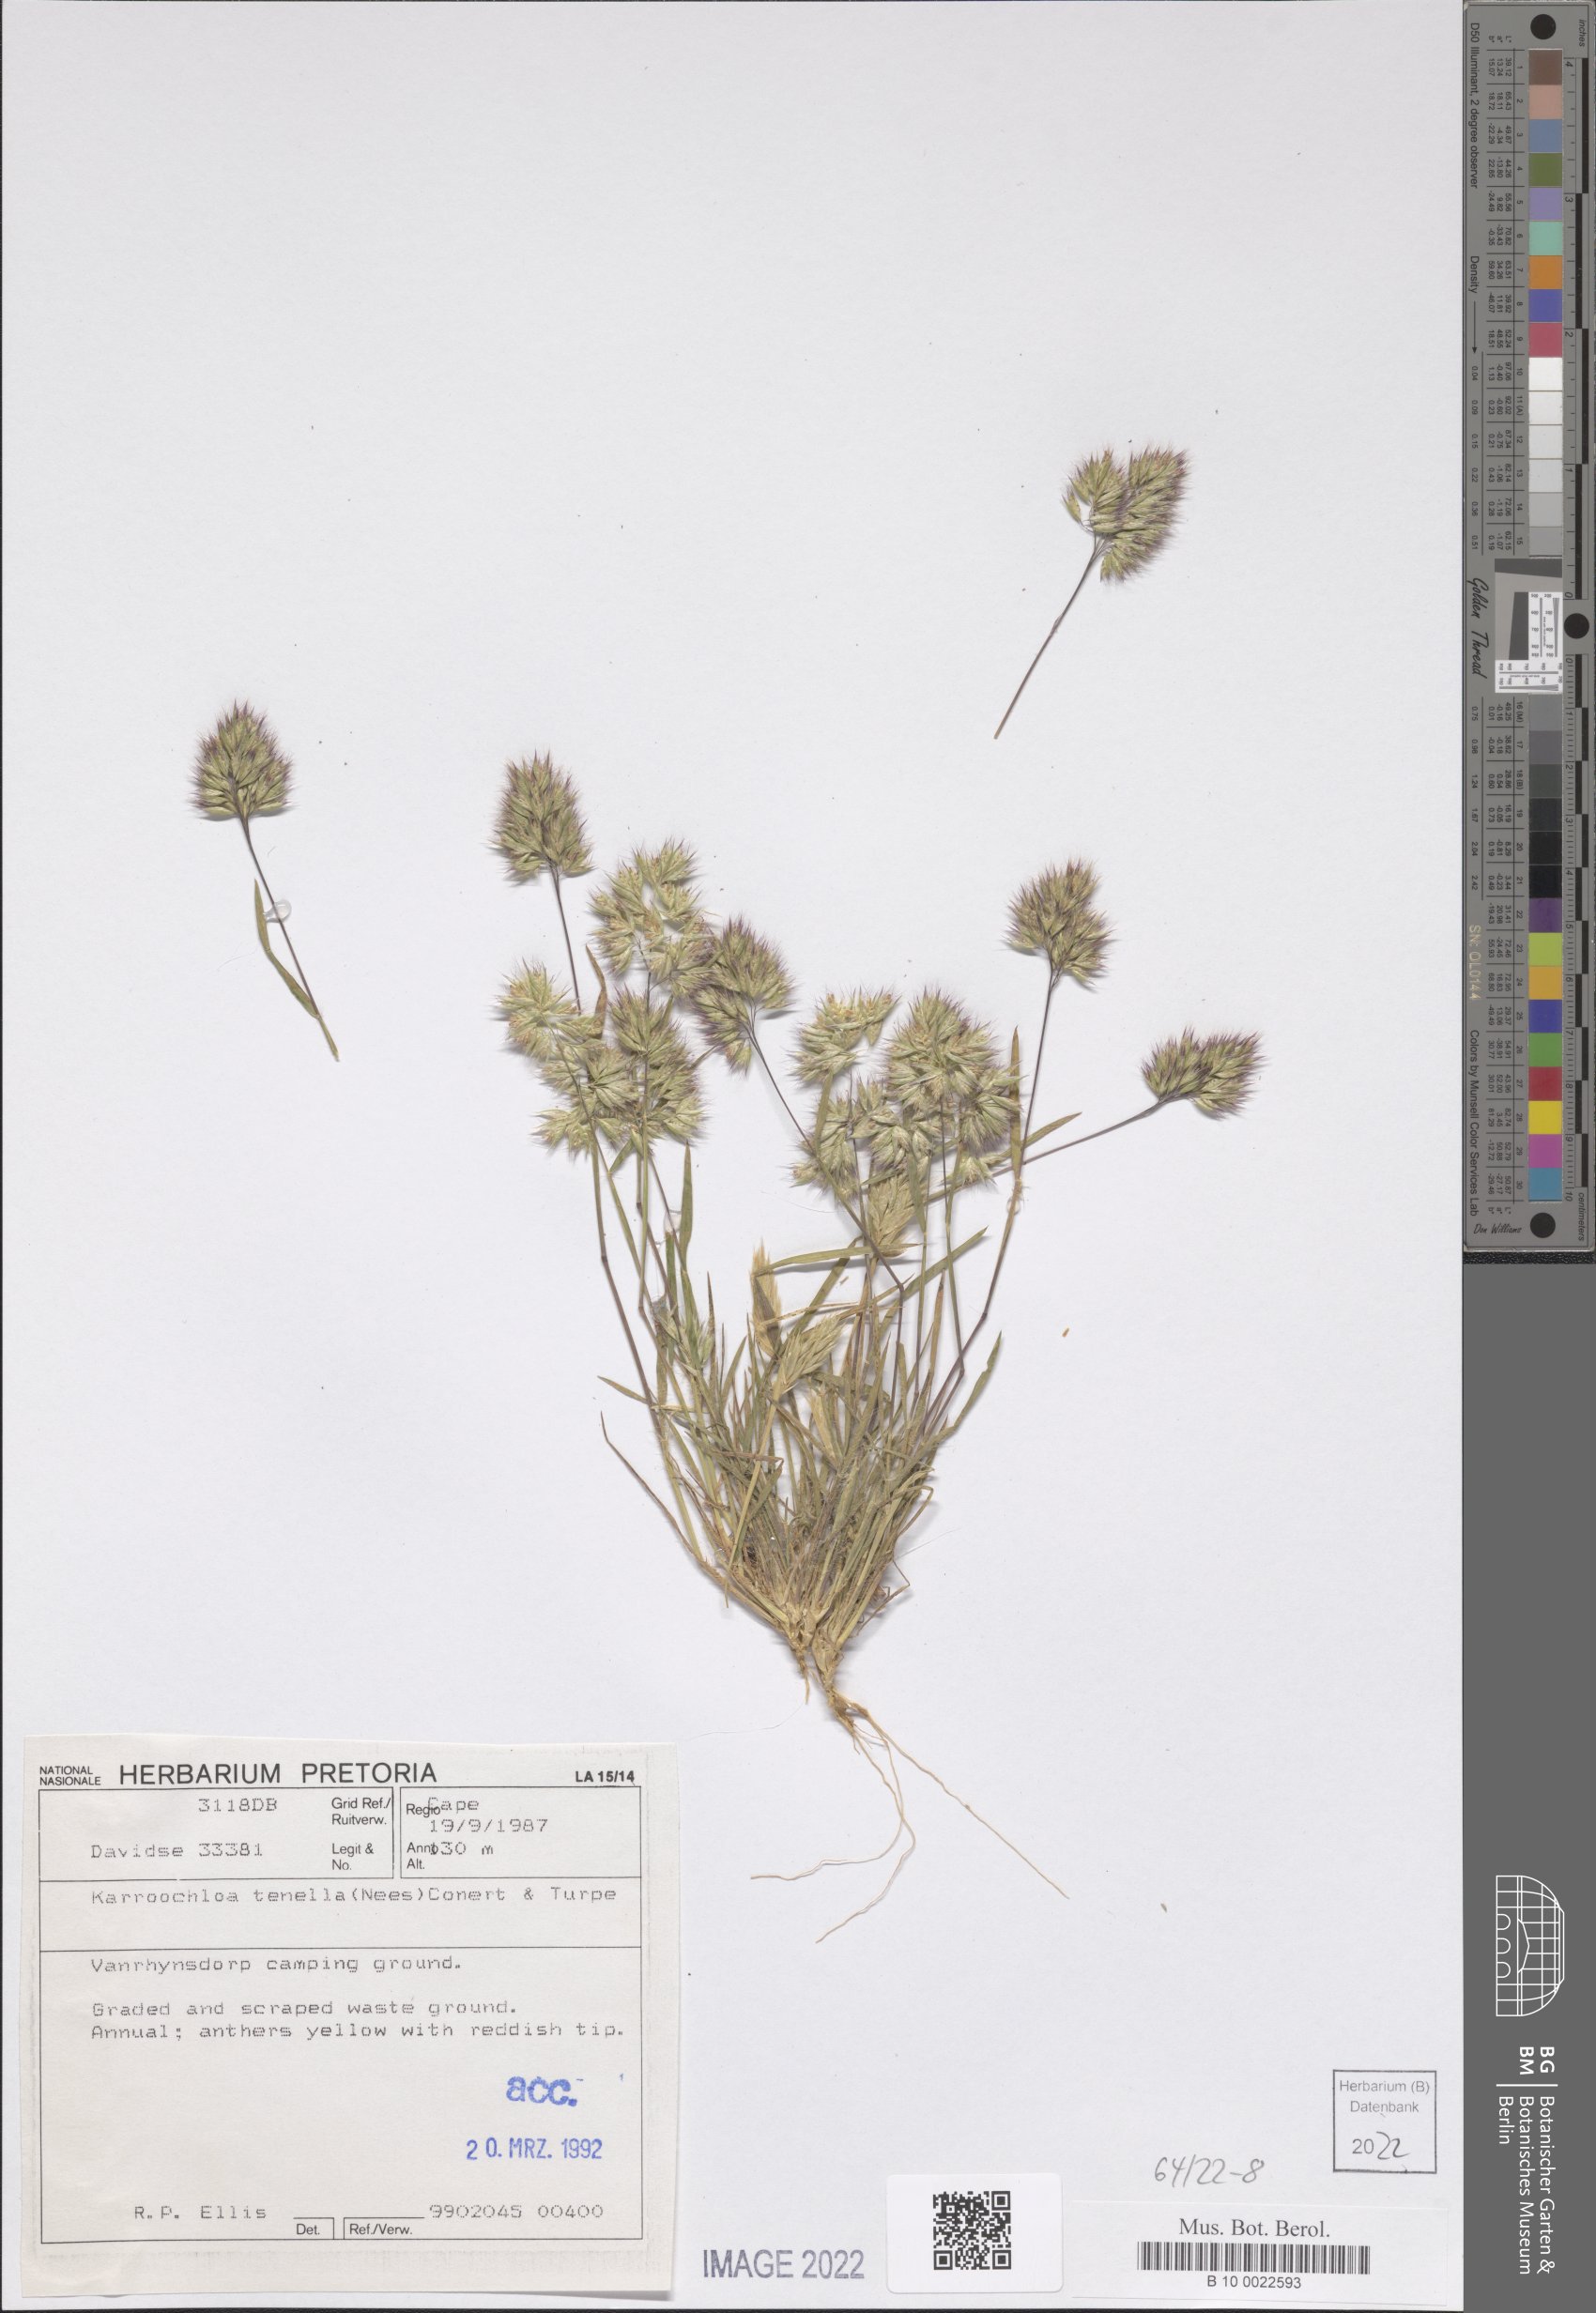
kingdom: Plantae
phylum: Tracheophyta
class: Liliopsida
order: Poales
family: Poaceae
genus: Tribolium
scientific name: Tribolium tenellum
